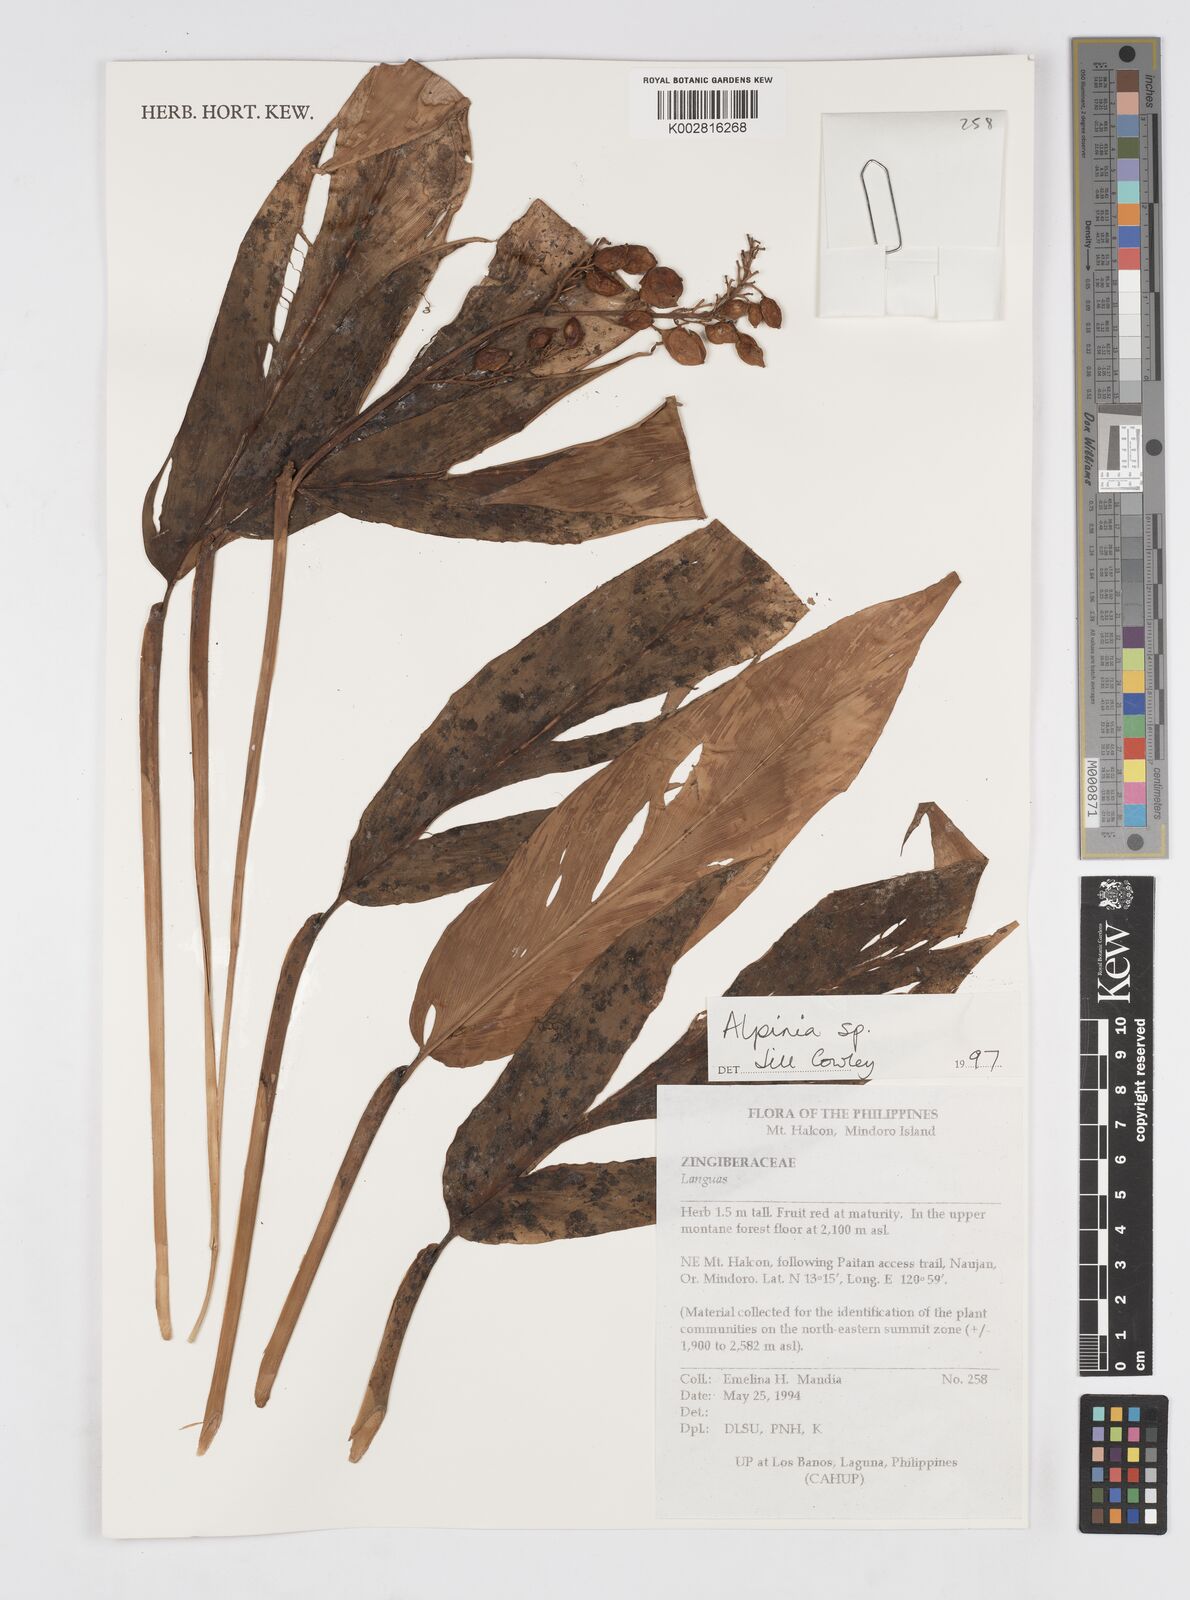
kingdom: Plantae
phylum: Tracheophyta
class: Liliopsida
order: Zingiberales
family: Zingiberaceae
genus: Alpinia
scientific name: Alpinia
